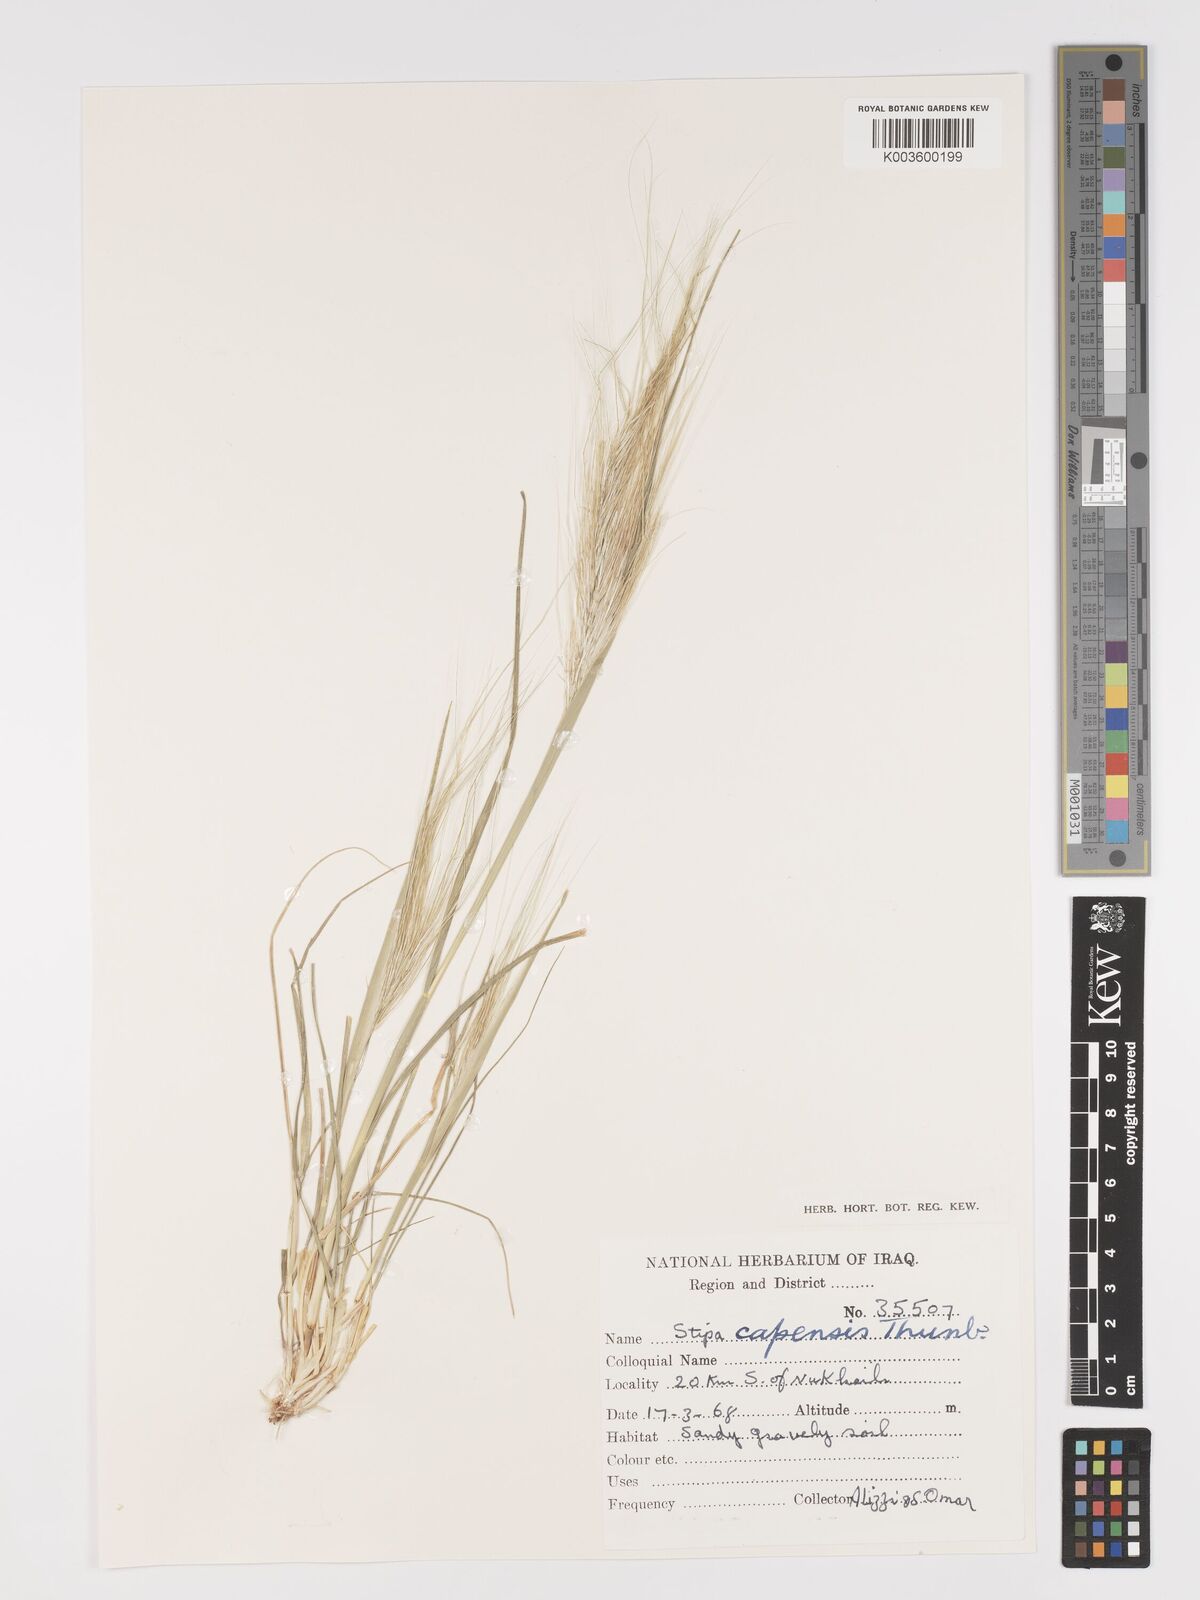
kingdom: Plantae
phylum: Tracheophyta
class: Liliopsida
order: Poales
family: Poaceae
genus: Stipellula
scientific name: Stipellula capensis
